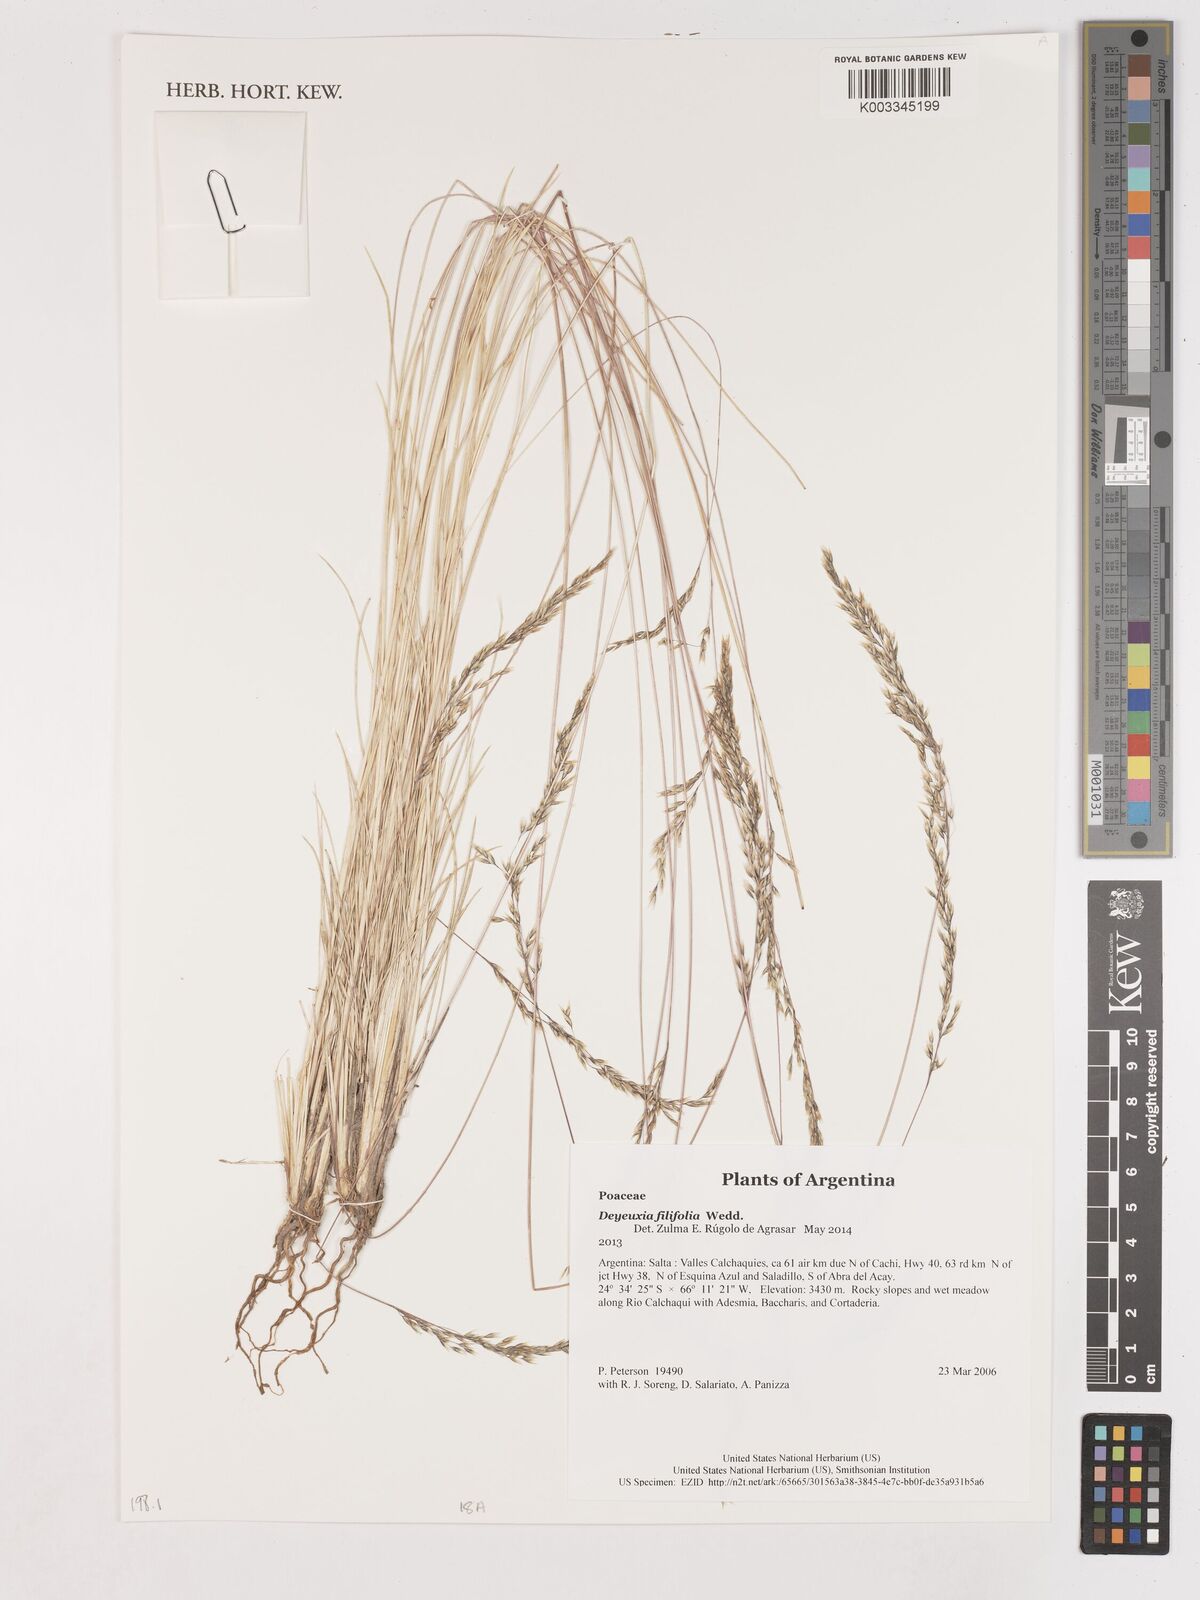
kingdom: Plantae
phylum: Tracheophyta
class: Liliopsida
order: Poales
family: Poaceae
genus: Cinnagrostis
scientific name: Cinnagrostis filifolia
